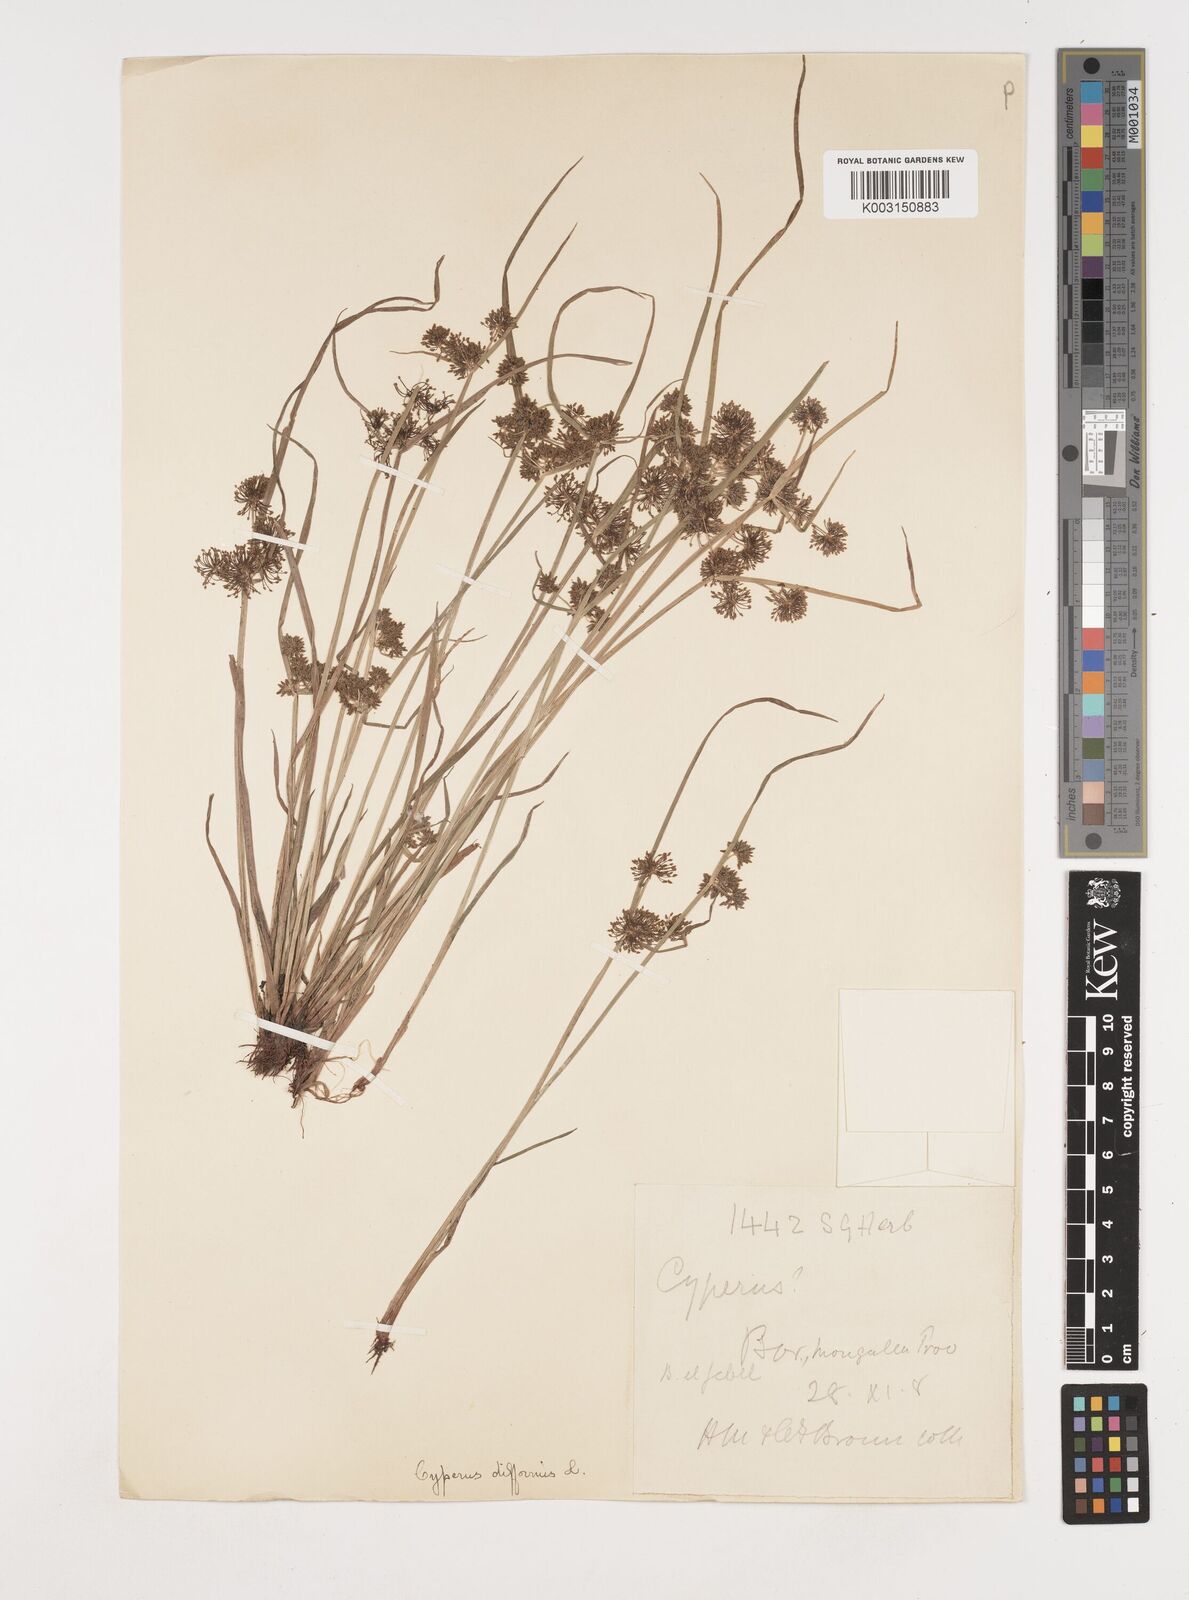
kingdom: Plantae
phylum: Tracheophyta
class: Liliopsida
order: Poales
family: Cyperaceae
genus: Cyperus
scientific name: Cyperus difformis
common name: Variable flatsedge
